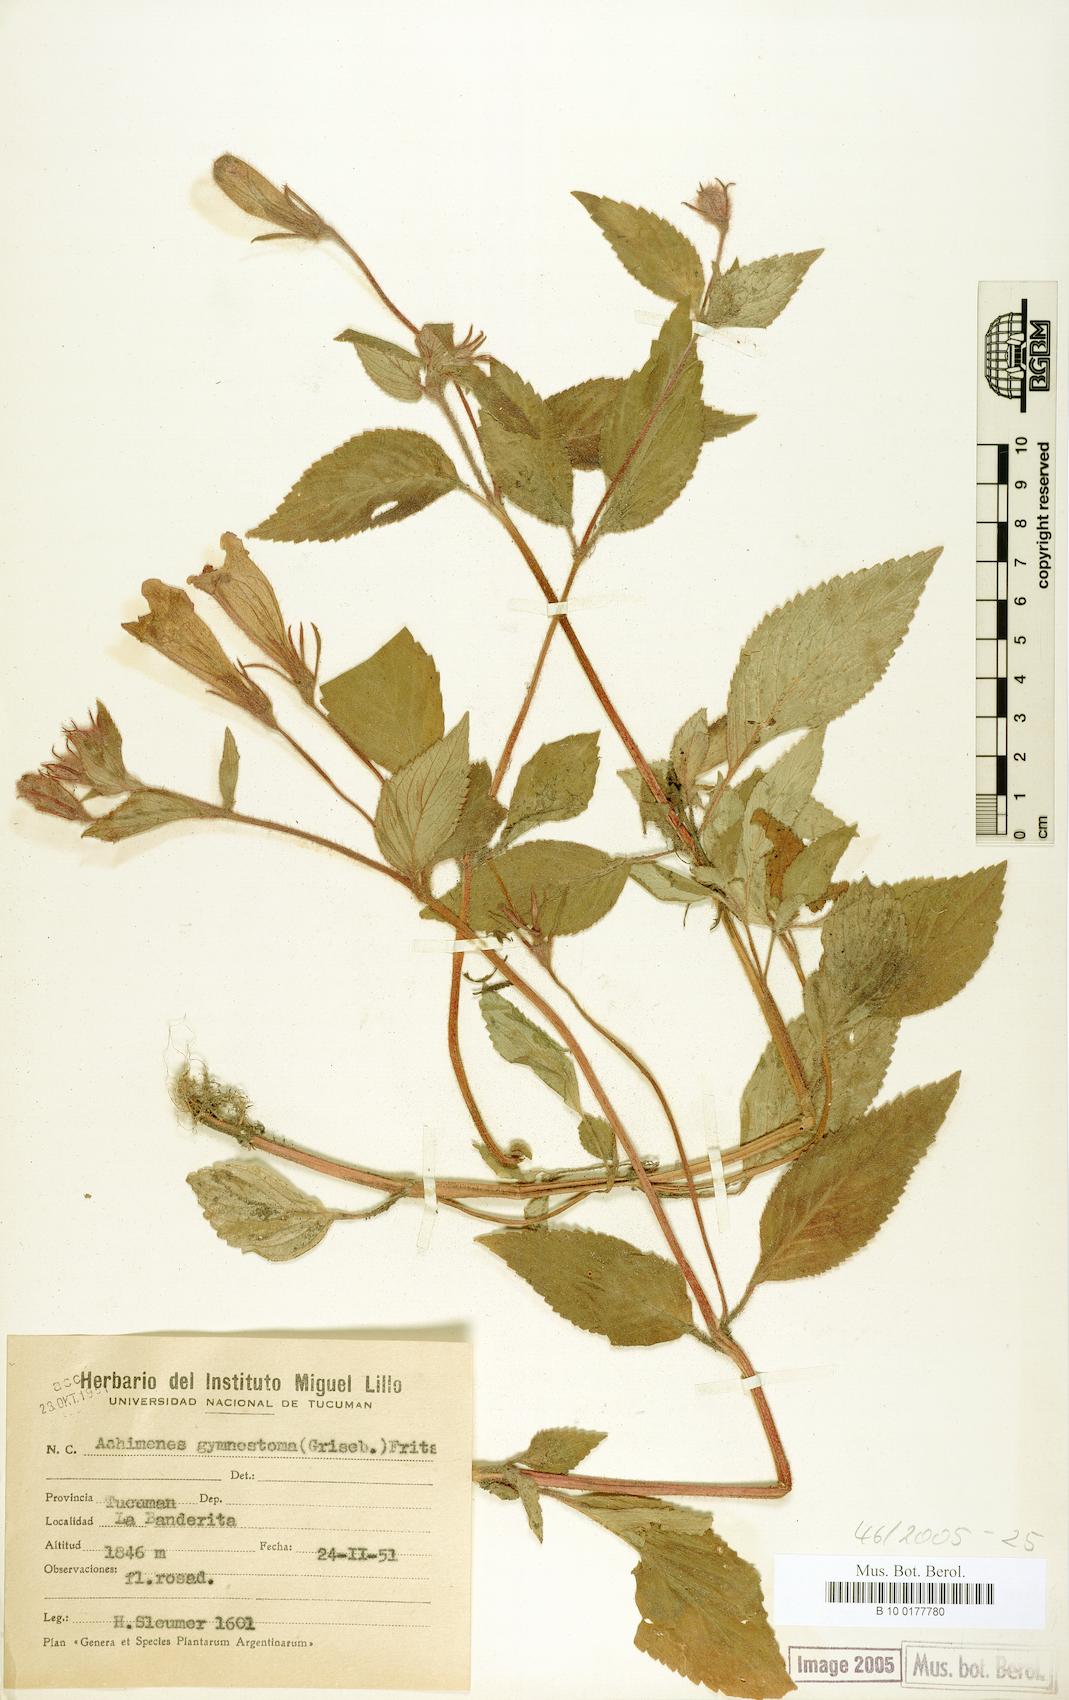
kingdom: Plantae
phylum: Tracheophyta
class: Magnoliopsida
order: Lamiales
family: Gesneriaceae
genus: Seemannia
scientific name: Seemannia gymnostoma
